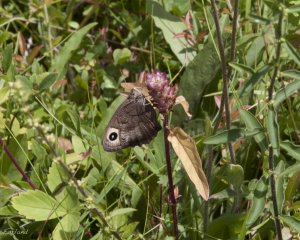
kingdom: Animalia
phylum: Arthropoda
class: Insecta
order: Lepidoptera
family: Nymphalidae
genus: Cercyonis
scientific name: Cercyonis pegala
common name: Common Wood-Nymph
